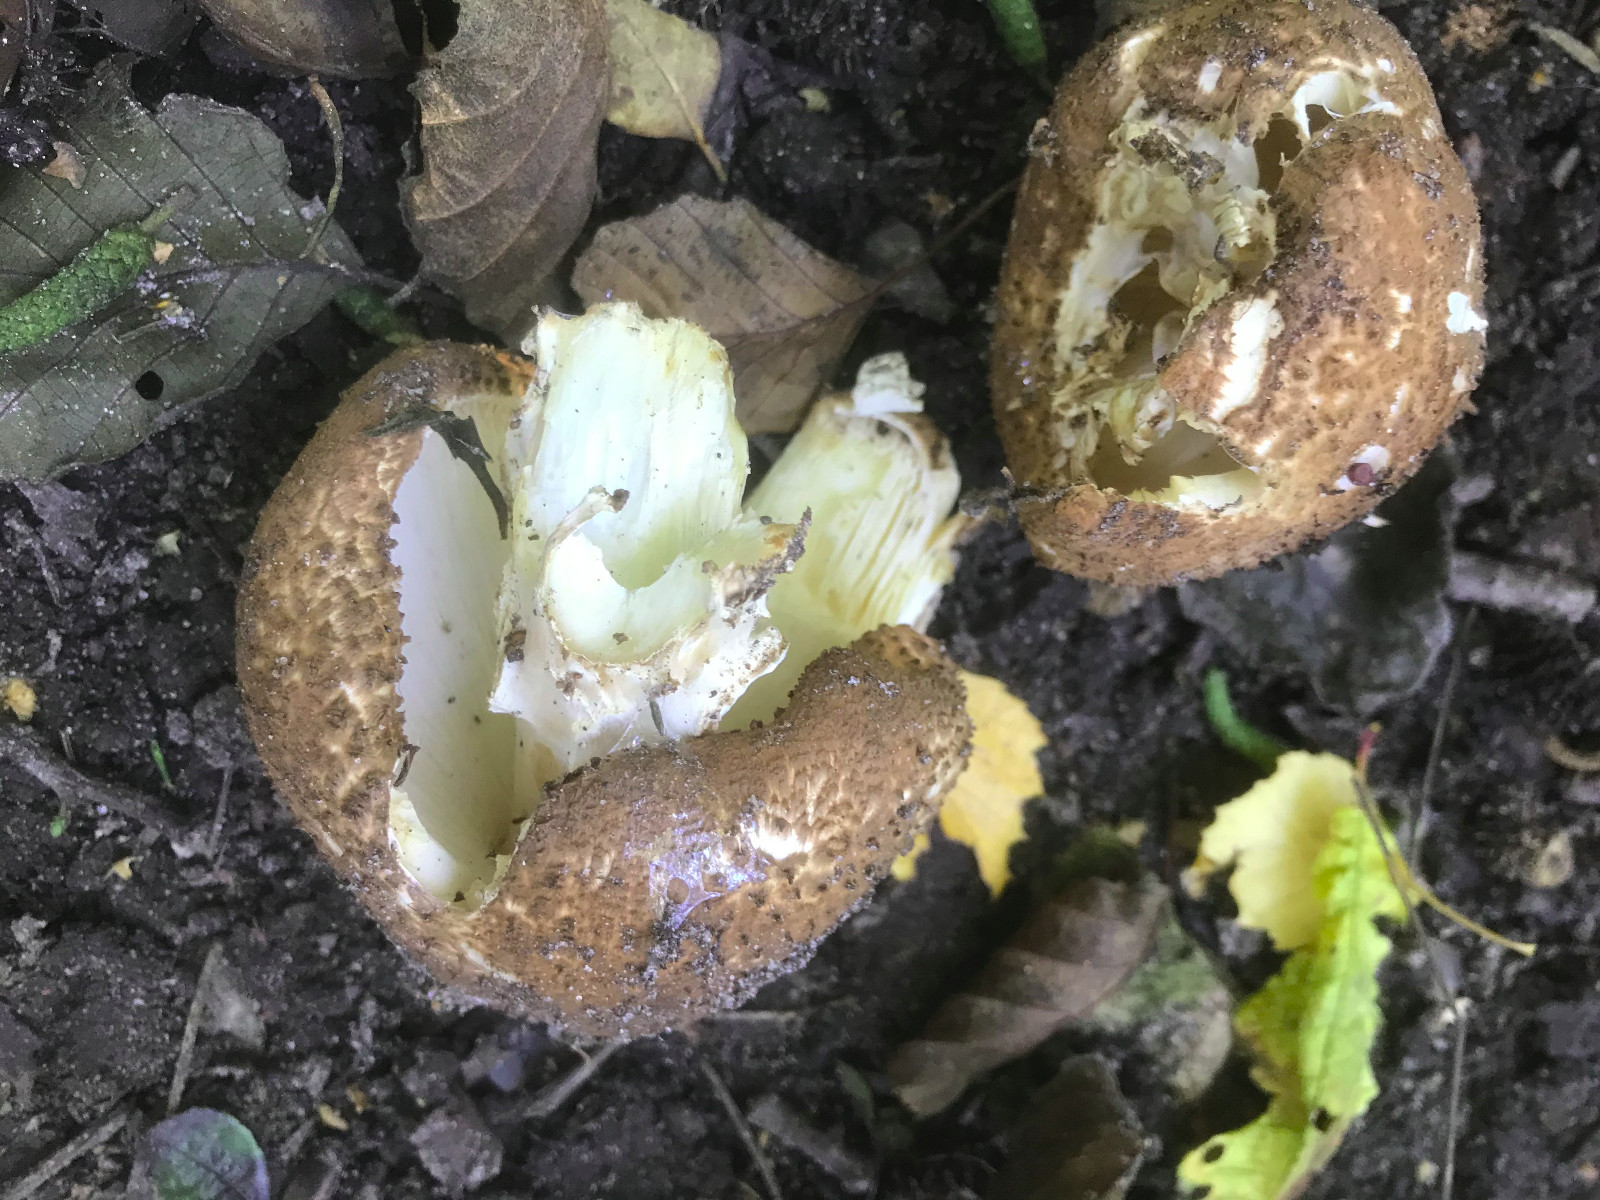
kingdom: Fungi
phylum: Basidiomycota
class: Agaricomycetes
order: Agaricales
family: Agaricaceae
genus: Echinoderma
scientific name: Echinoderma asperum
